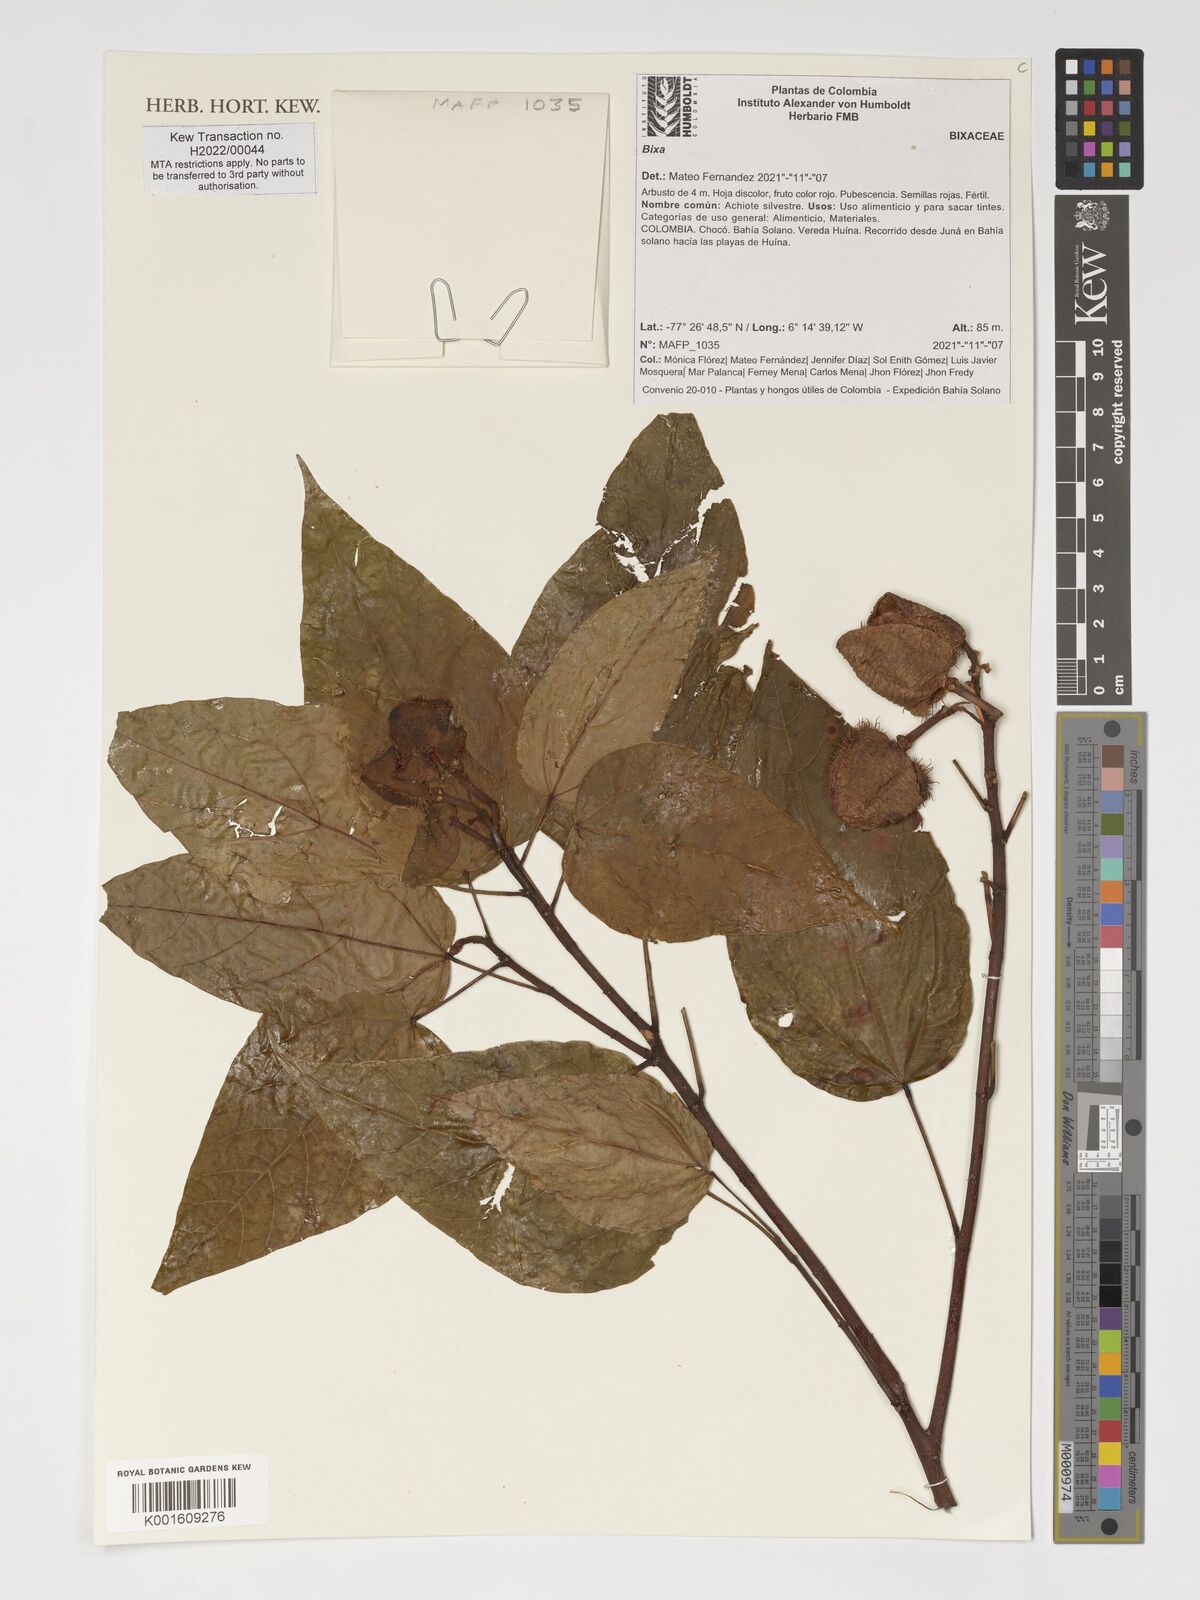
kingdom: Plantae
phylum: Tracheophyta
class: Magnoliopsida
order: Malvales
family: Bixaceae
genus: Bixa
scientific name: Bixa
